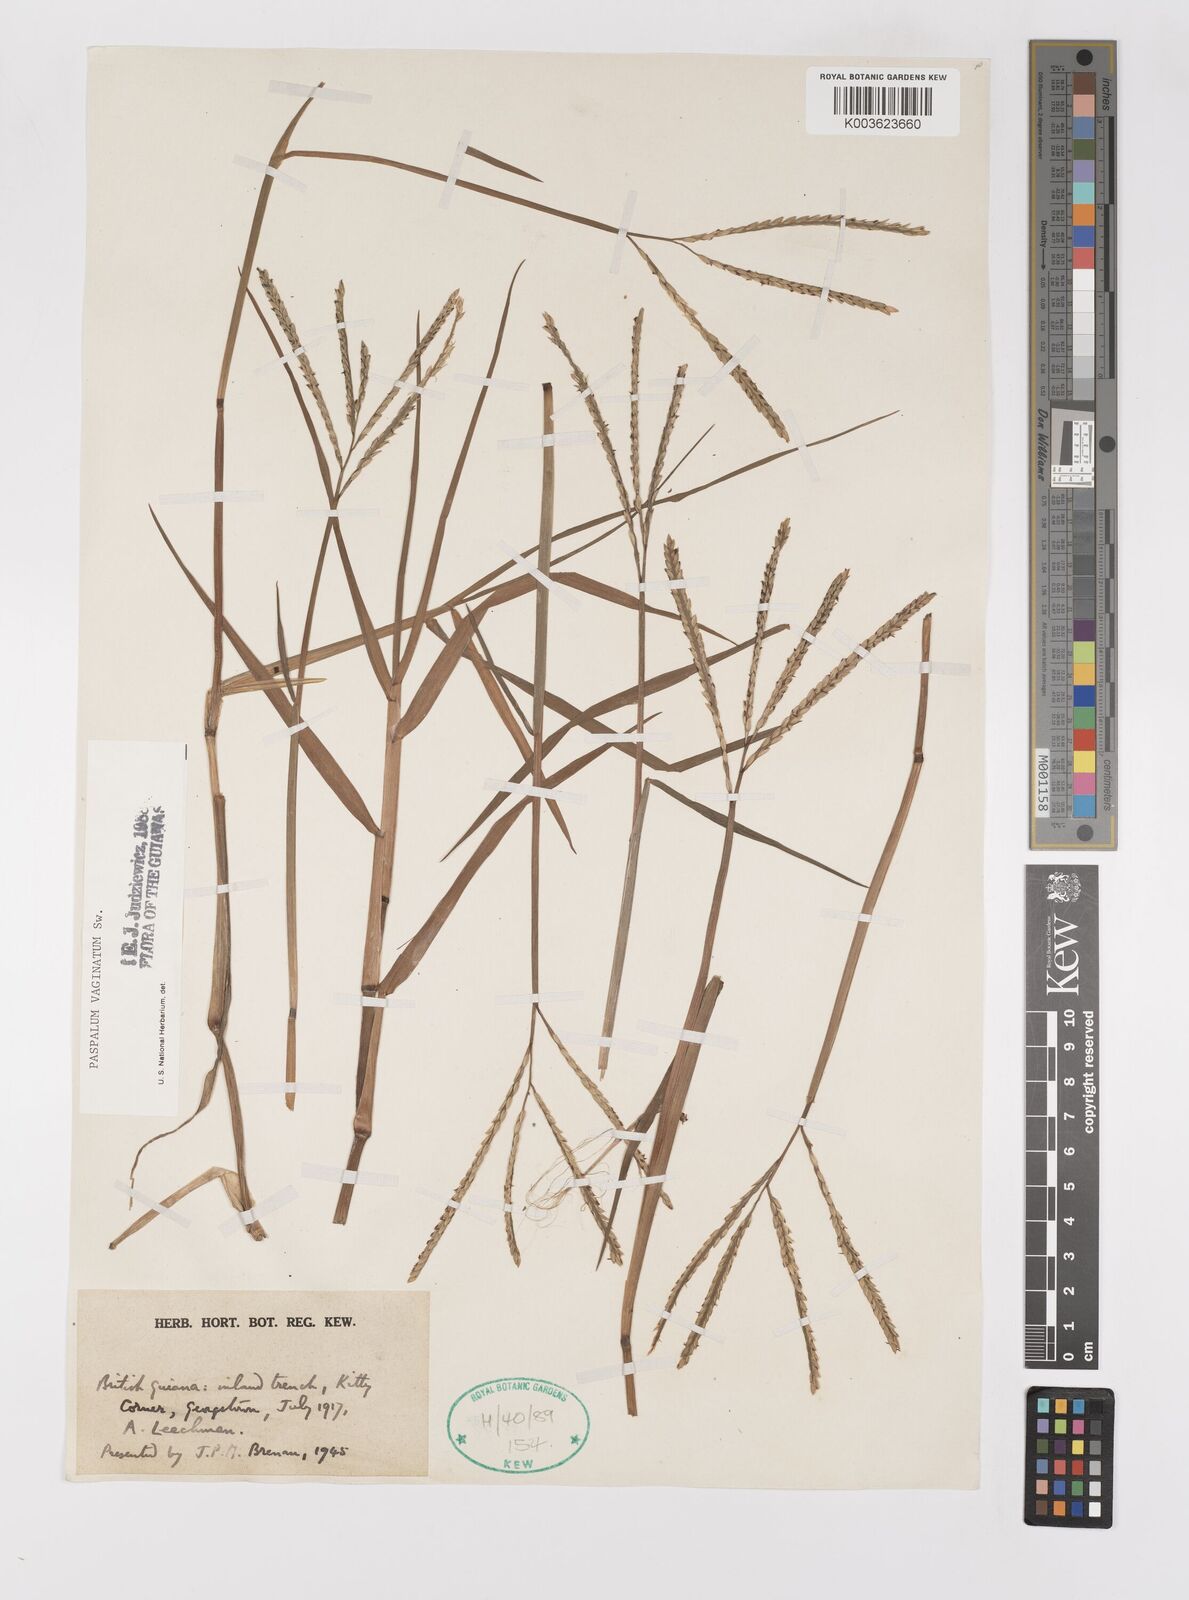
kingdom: Plantae
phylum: Tracheophyta
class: Liliopsida
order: Poales
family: Poaceae
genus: Paspalum
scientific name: Paspalum vaginatum
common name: Seashore paspalum
